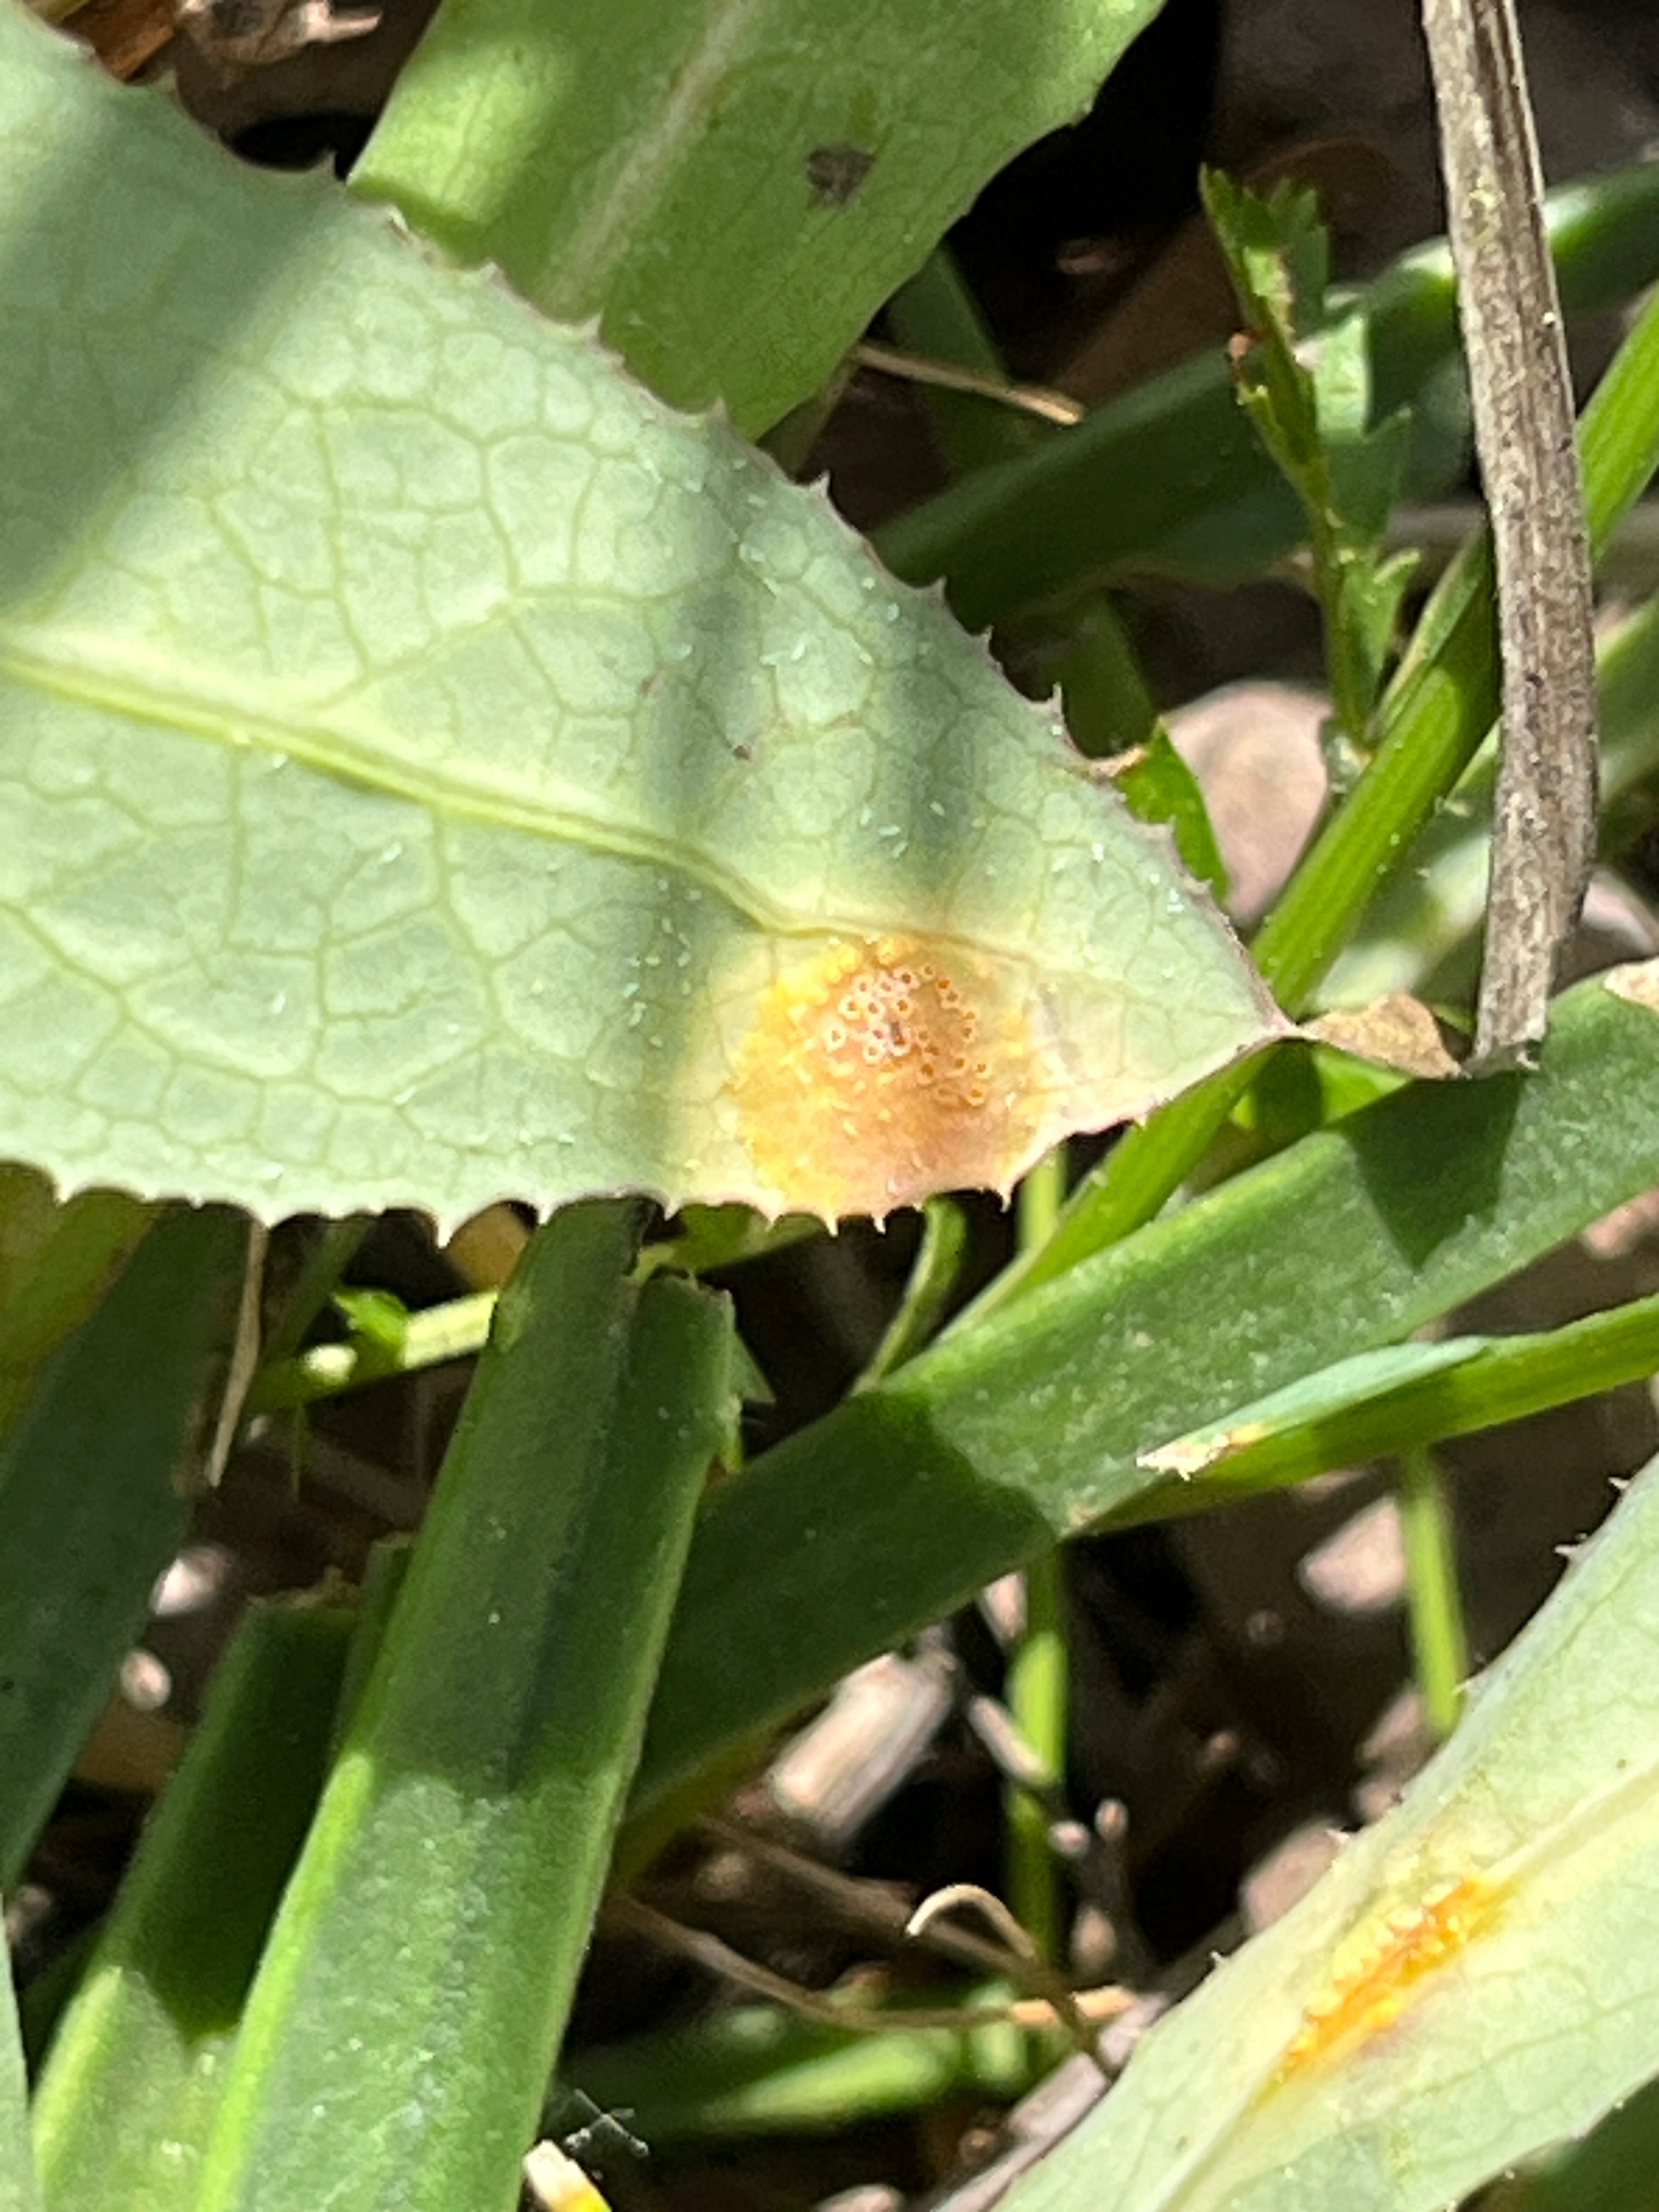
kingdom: Fungi
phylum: Basidiomycota
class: Pucciniomycetes
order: Pucciniales
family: Pucciniaceae
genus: Puccinia
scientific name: Puccinia littoralis
